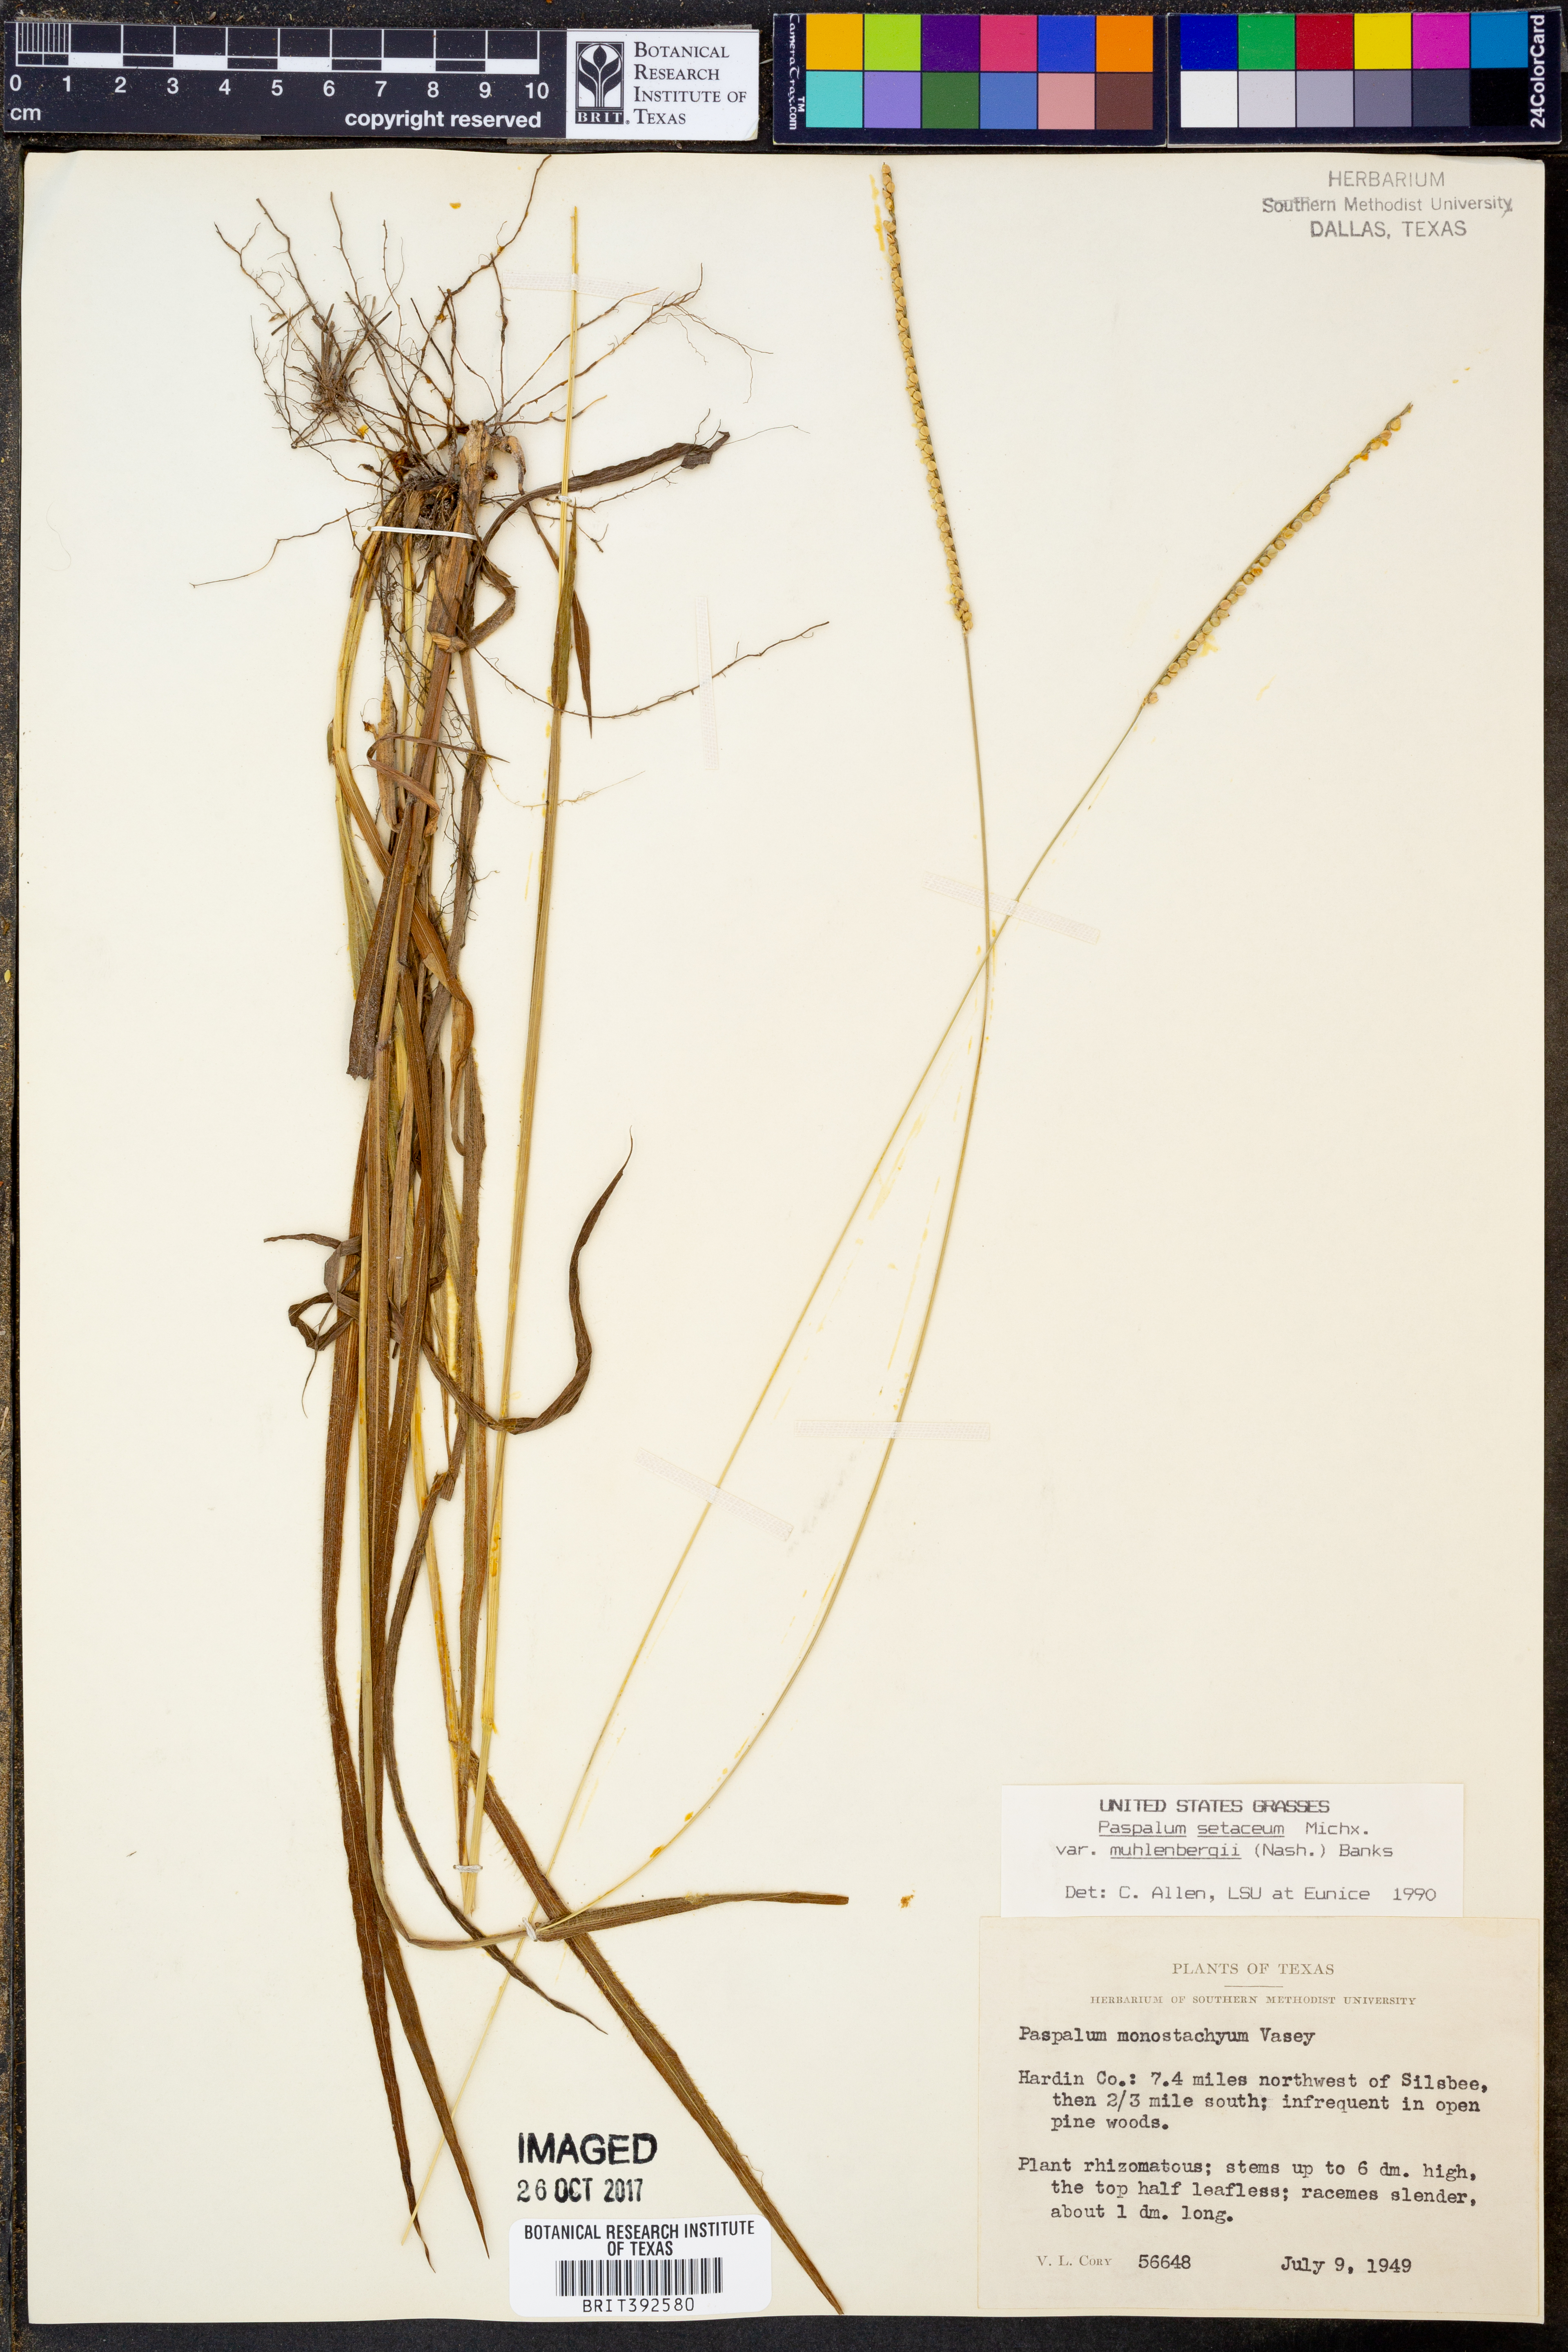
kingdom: Plantae
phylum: Tracheophyta
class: Liliopsida
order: Poales
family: Poaceae
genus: Paspalum
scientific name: Paspalum setaceum
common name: Slender paspalum
